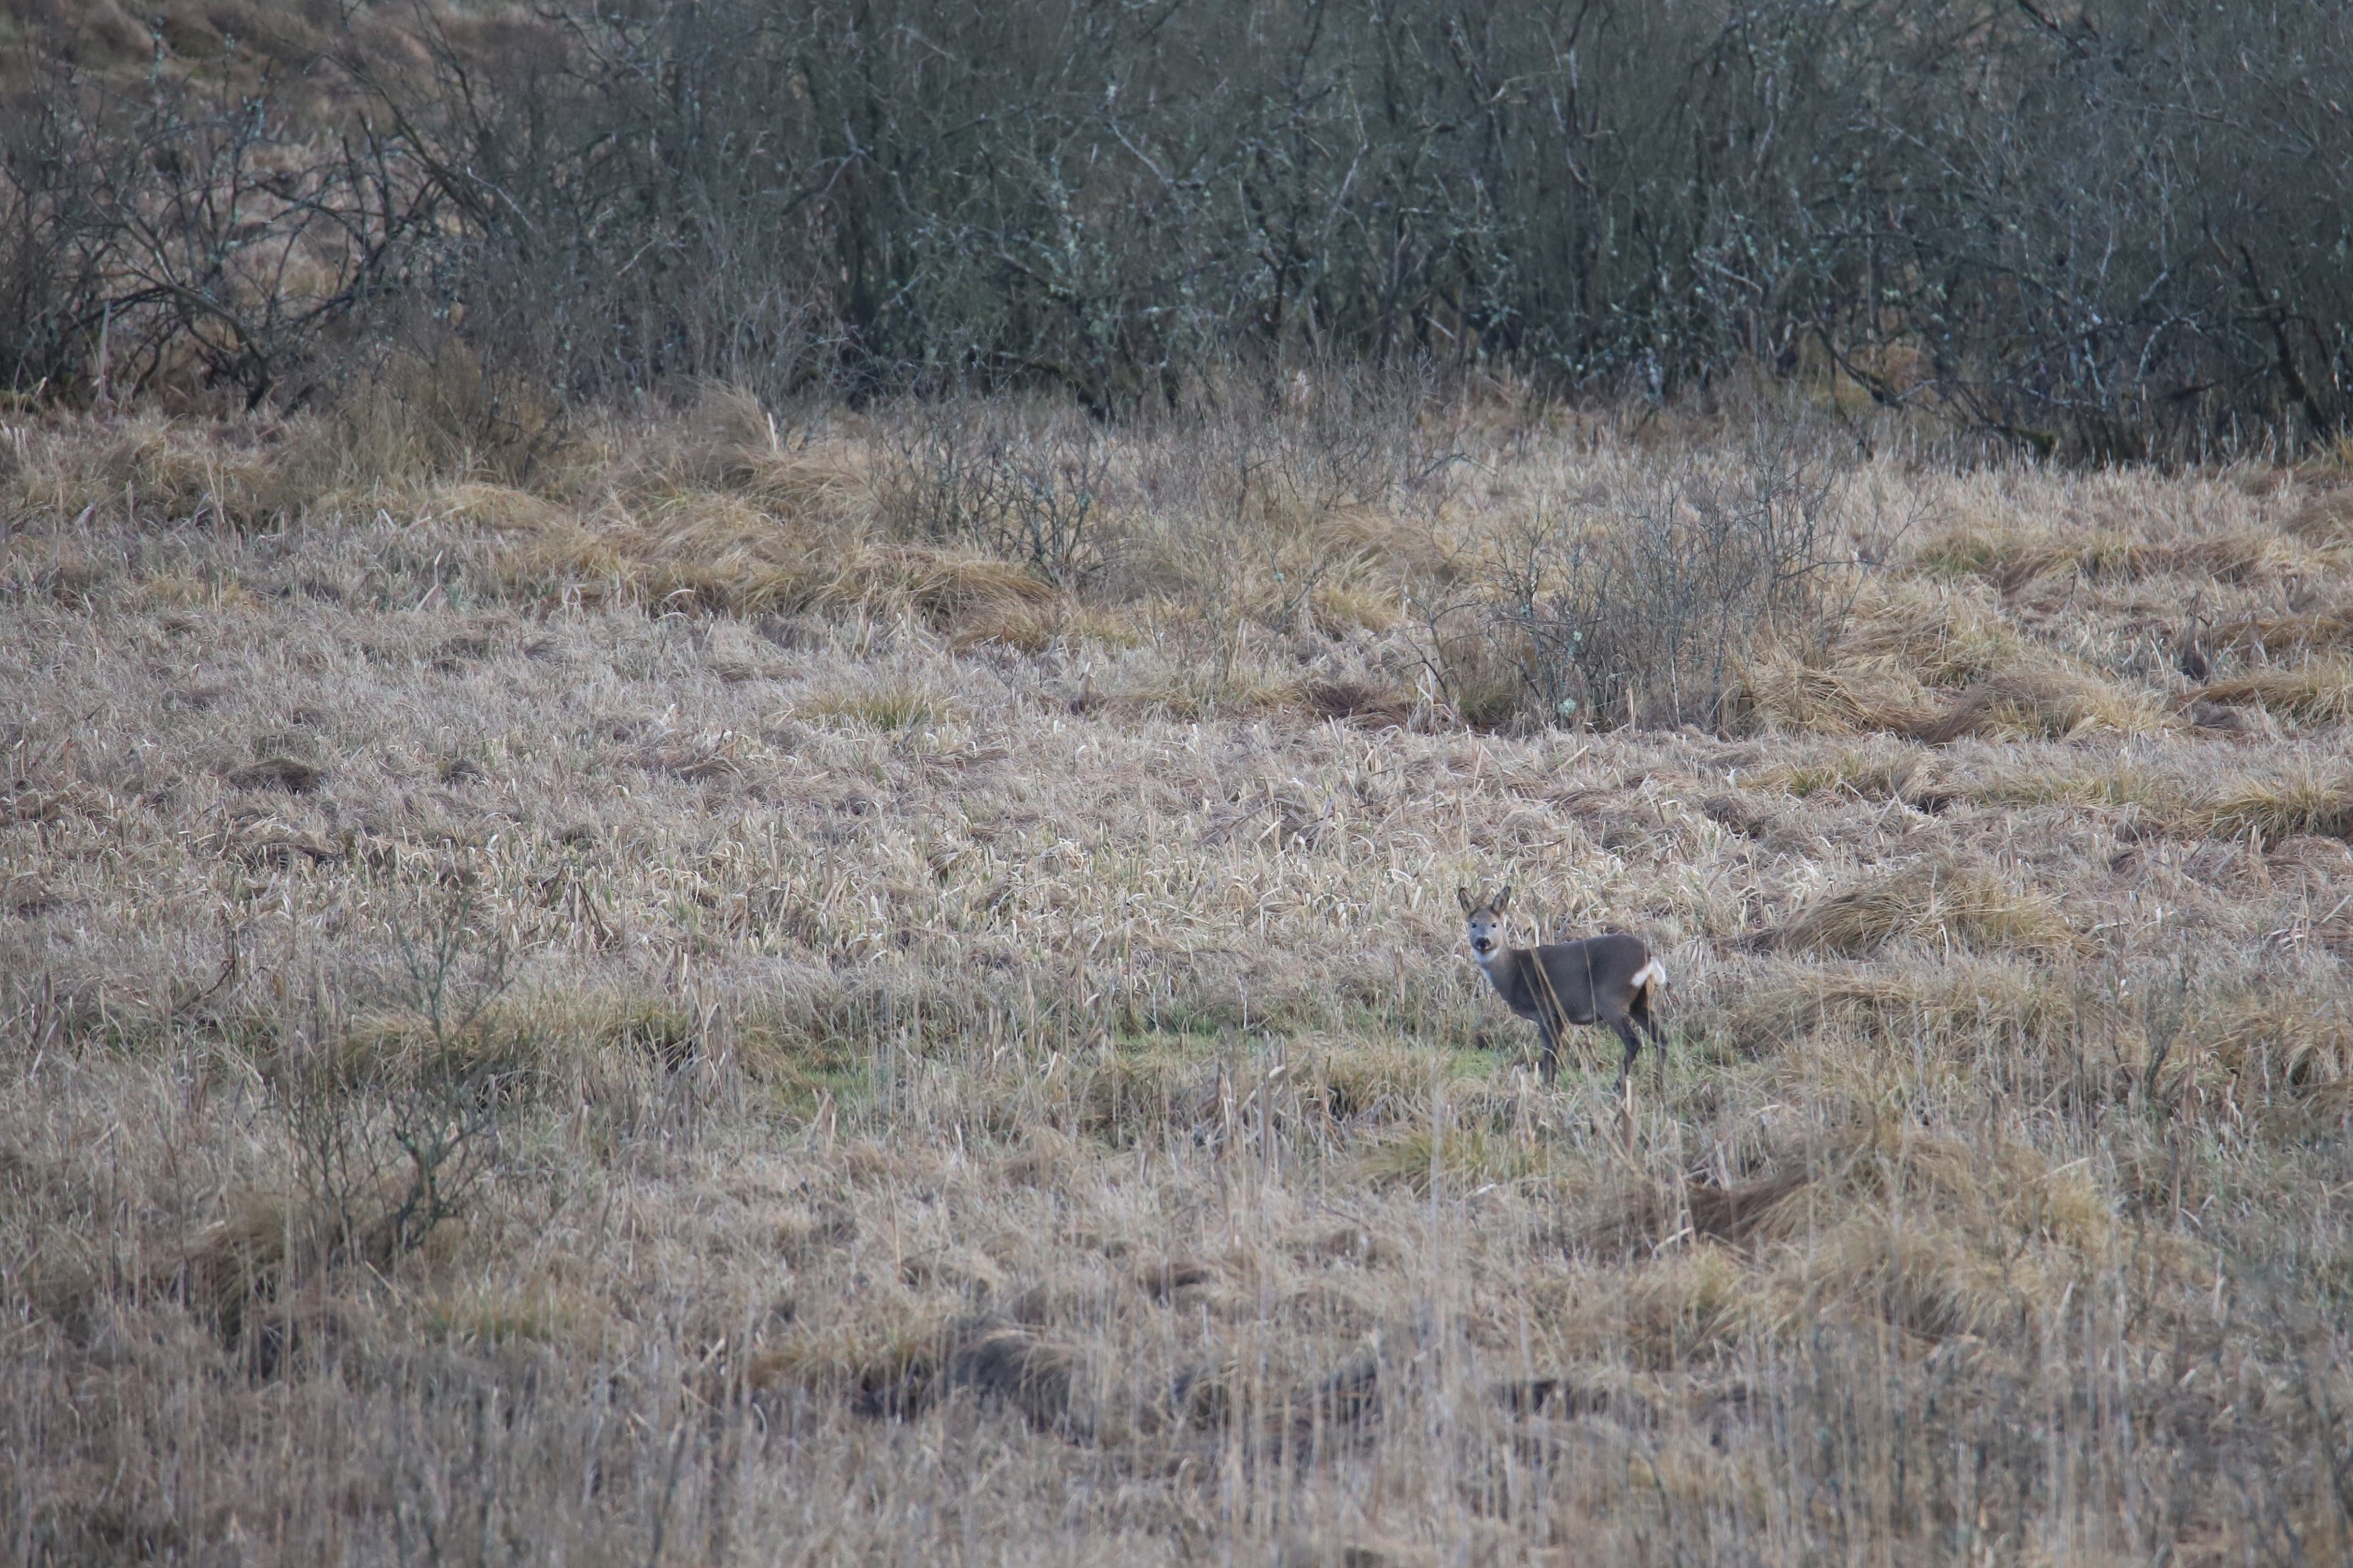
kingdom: Animalia
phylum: Chordata
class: Mammalia
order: Artiodactyla
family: Cervidae
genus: Capreolus
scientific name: Capreolus capreolus
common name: Rådyr
